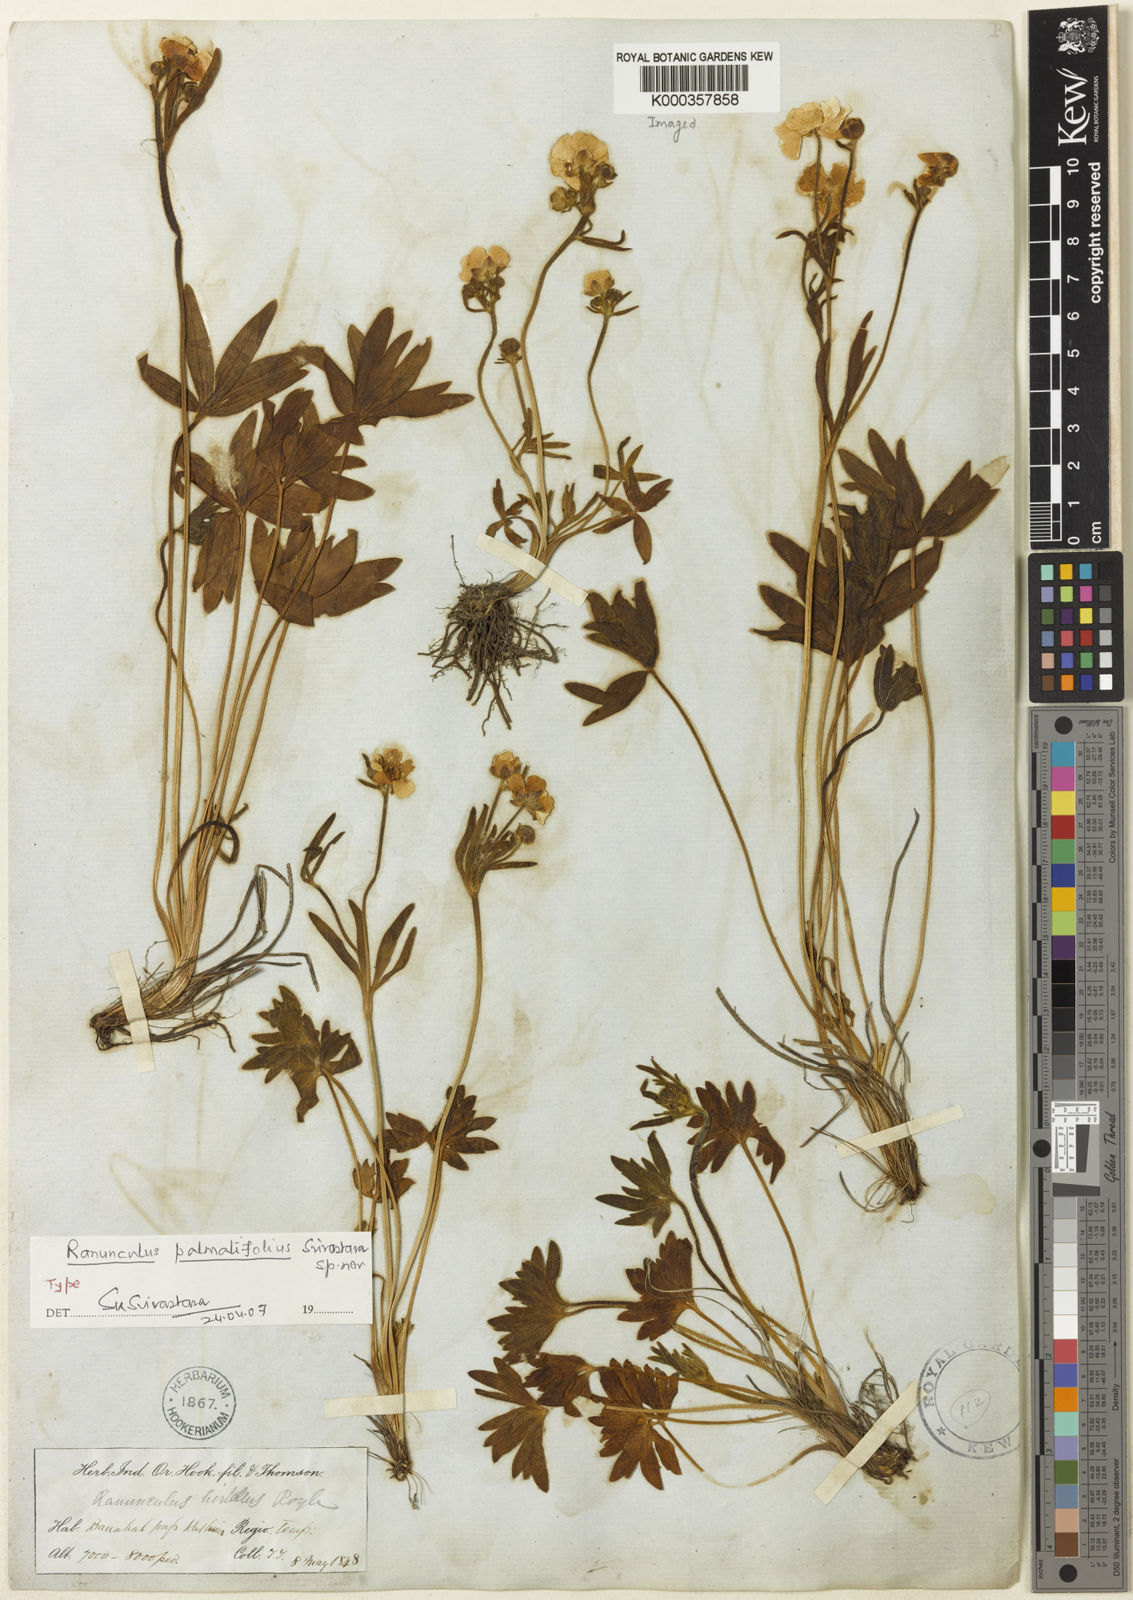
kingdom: Plantae
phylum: Tracheophyta
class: Magnoliopsida
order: Ranunculales
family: Ranunculaceae
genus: Ranunculus
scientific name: Ranunculus
